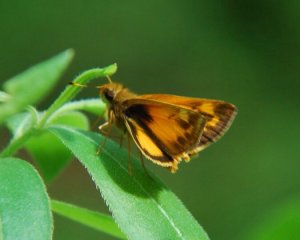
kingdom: Animalia
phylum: Arthropoda
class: Insecta
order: Lepidoptera
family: Hesperiidae
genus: Lon
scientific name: Lon zabulon
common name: Zabulon Skipper
